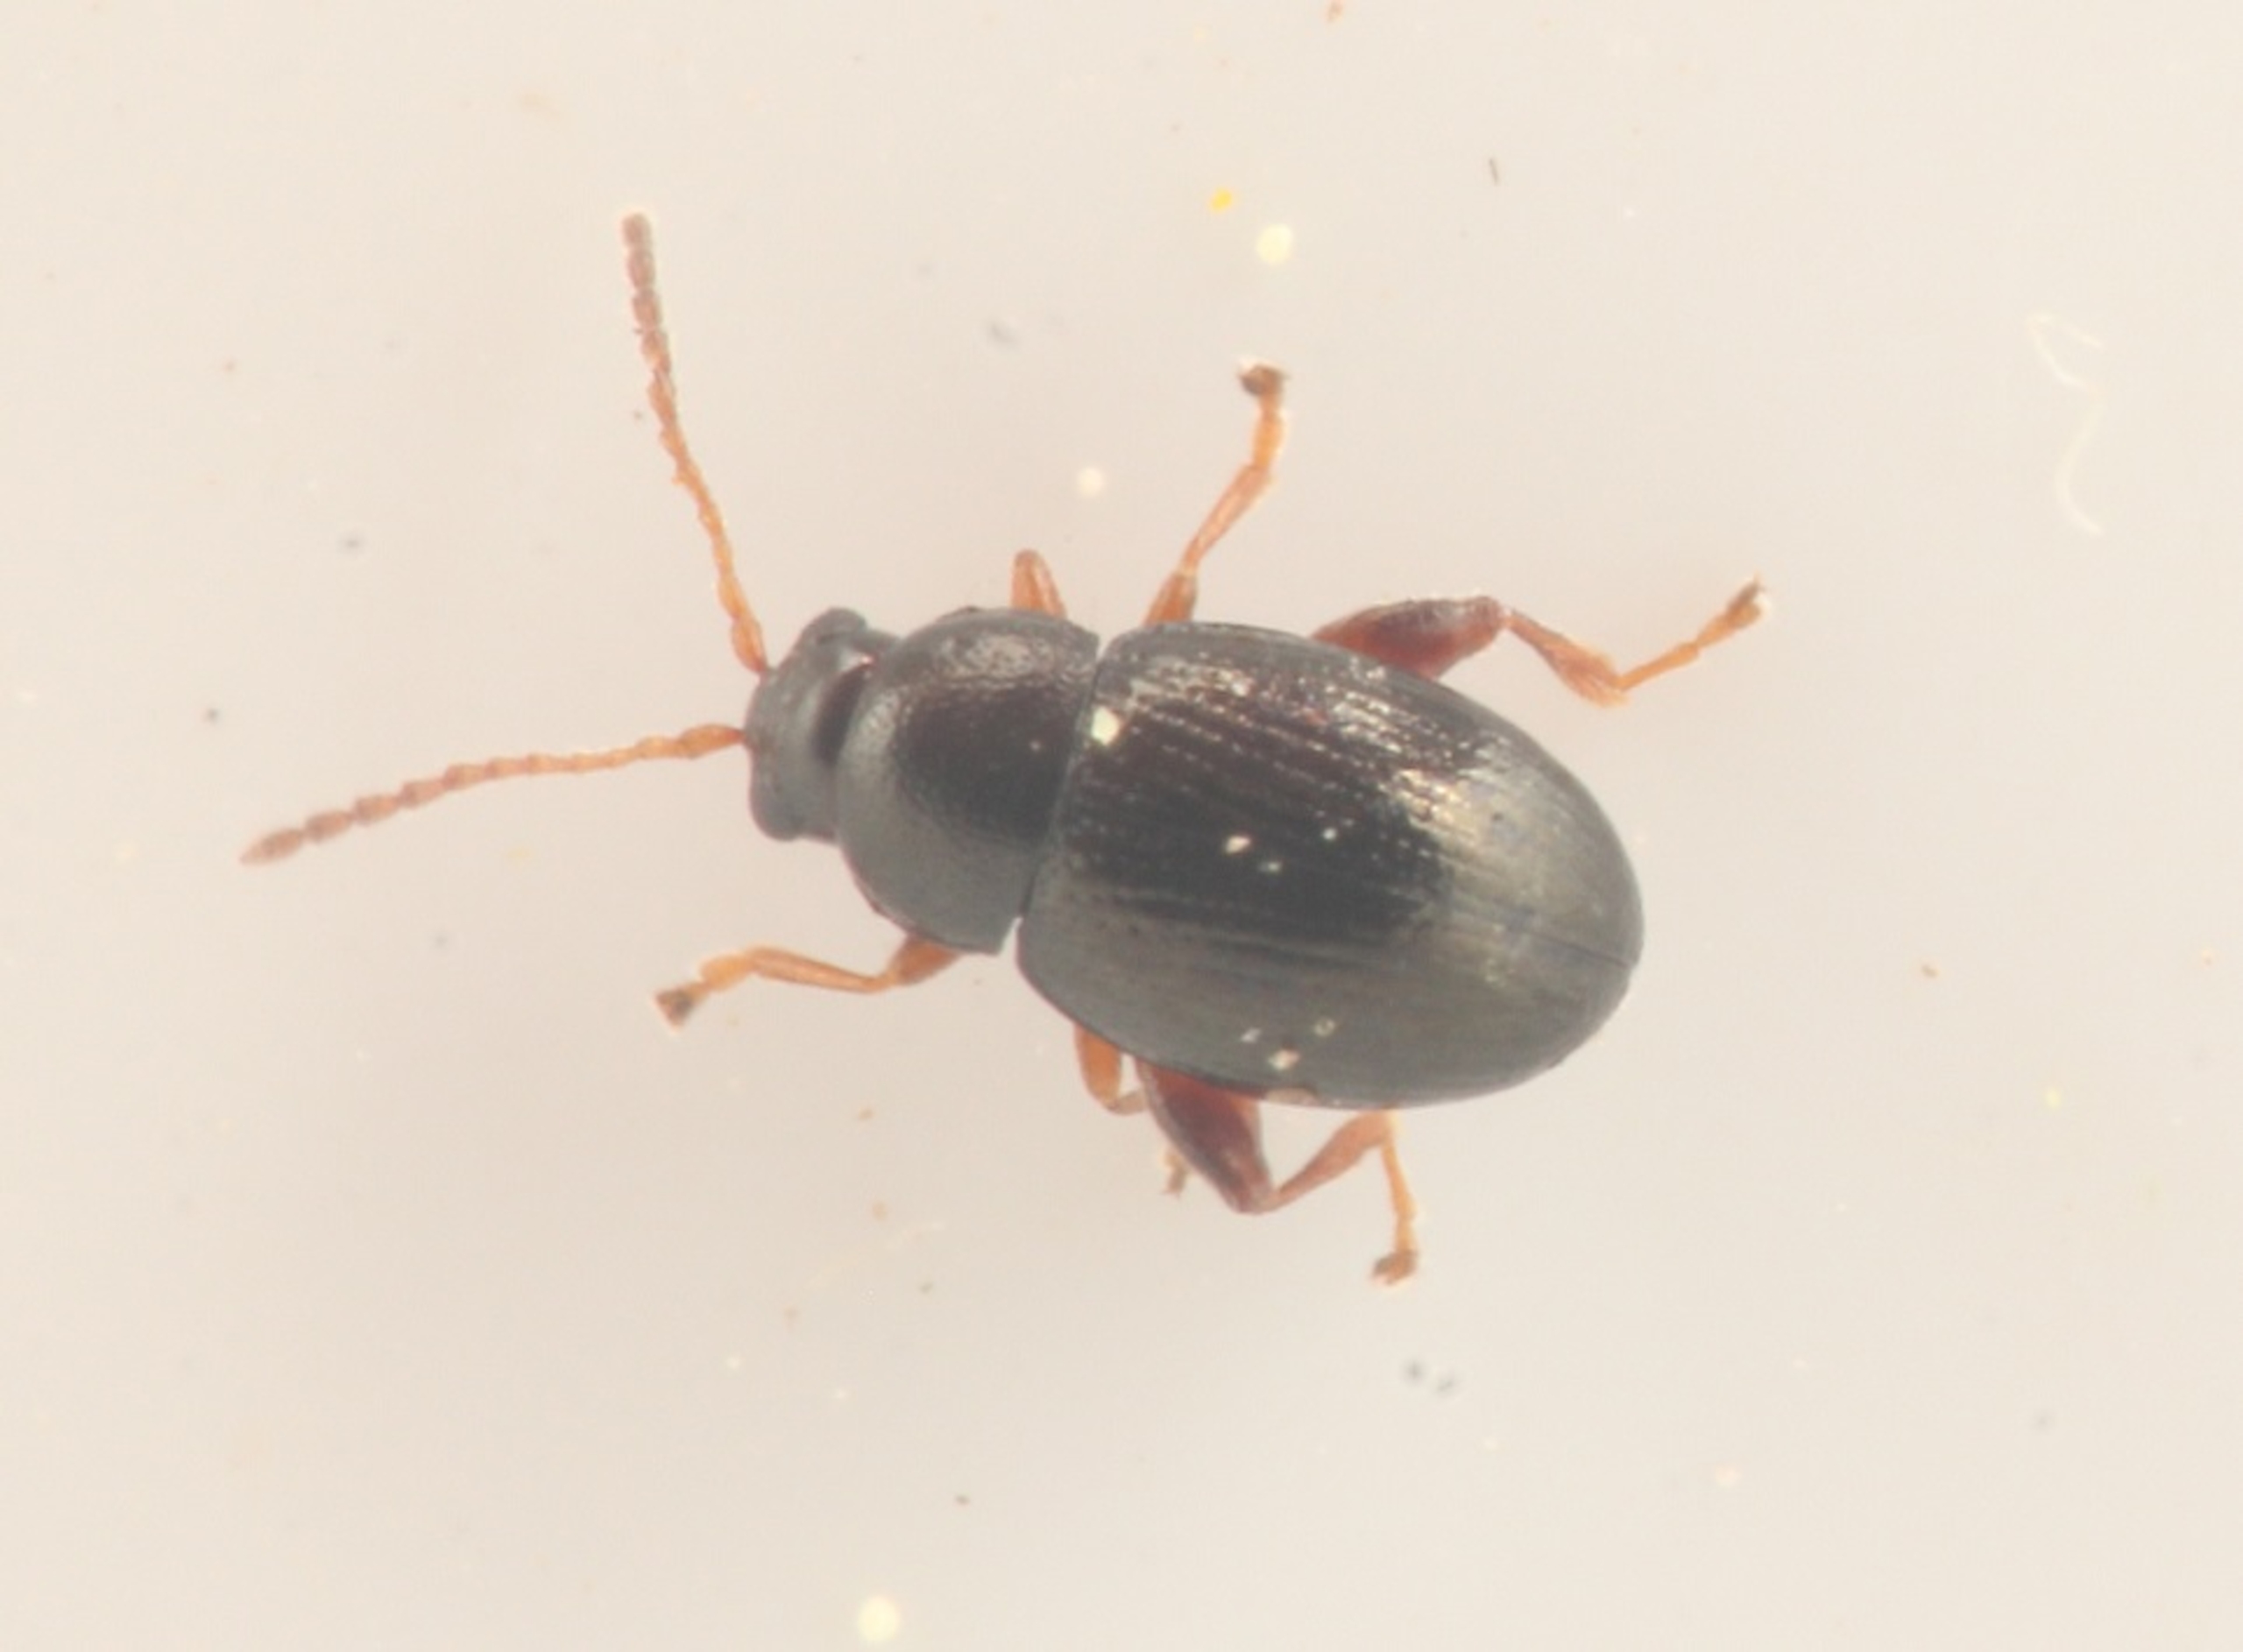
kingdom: Animalia
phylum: Arthropoda
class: Insecta
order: Coleoptera
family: Chrysomelidae
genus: Batophila
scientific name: Batophila rubi
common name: Hindbærjordloppe
